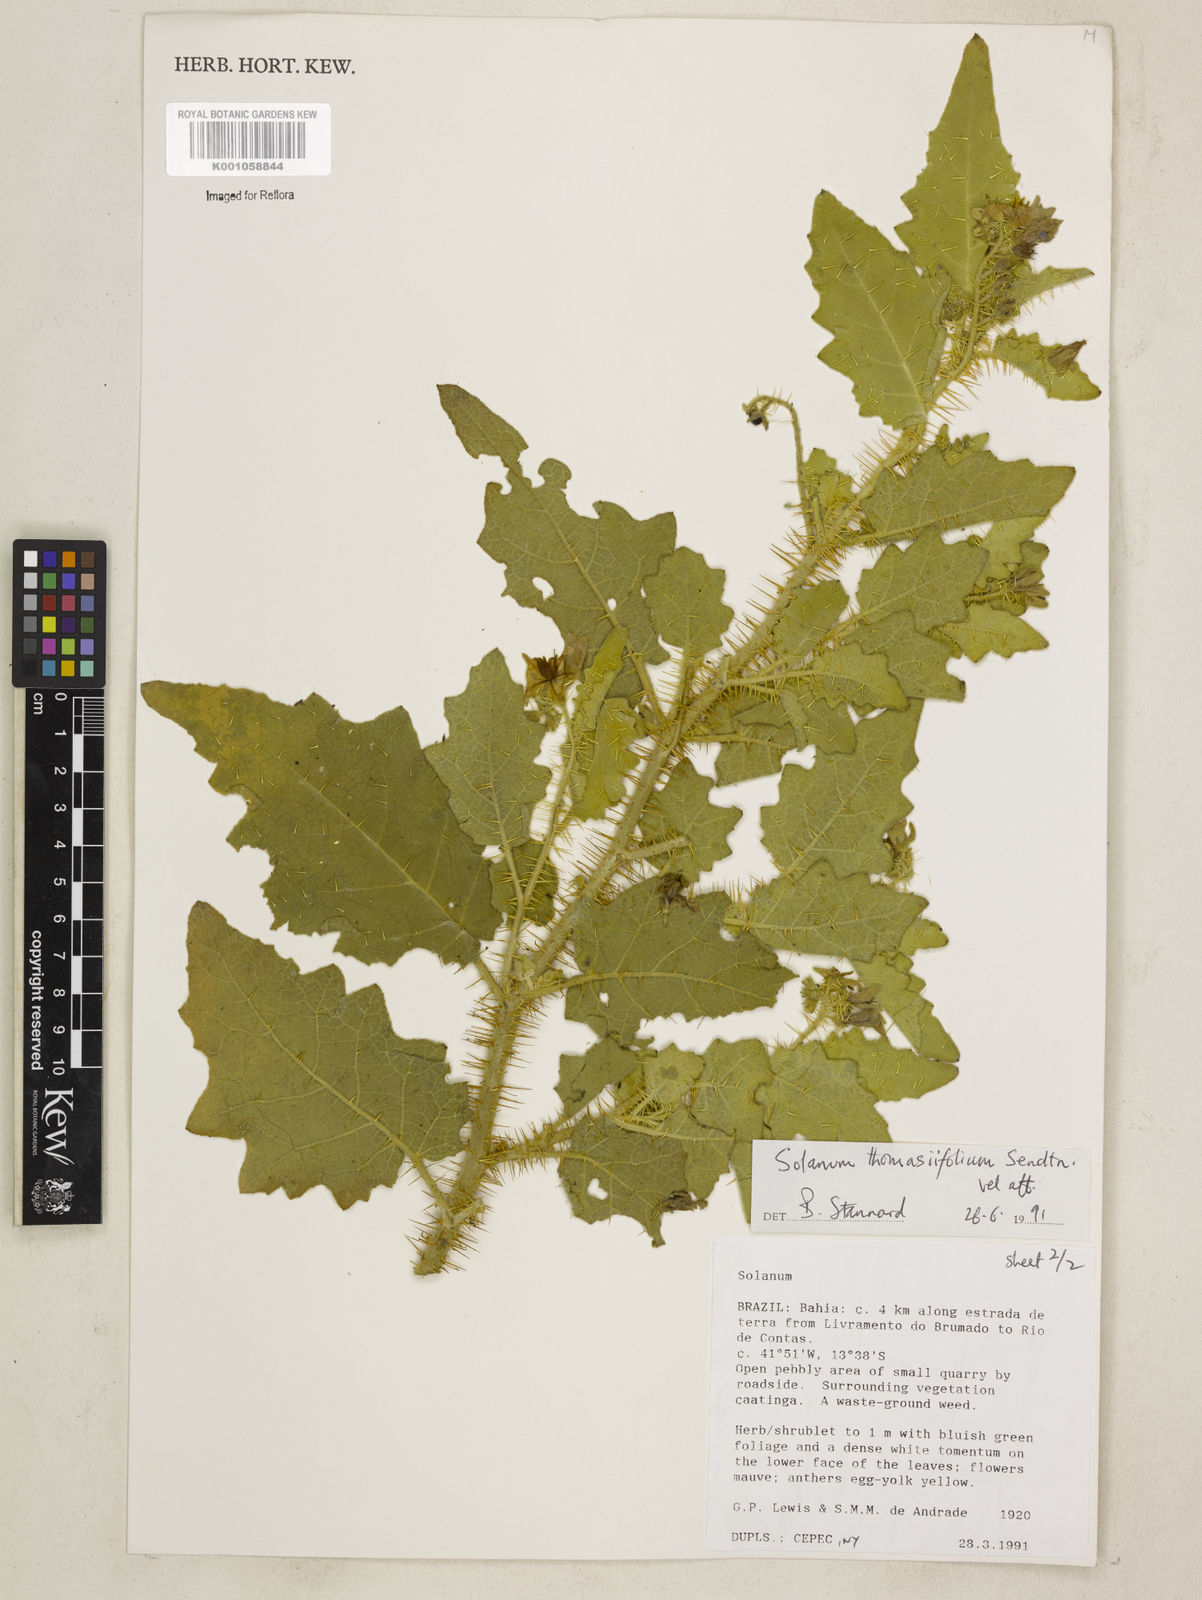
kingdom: Plantae
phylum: Tracheophyta
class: Magnoliopsida
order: Solanales
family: Solanaceae
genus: Solanum
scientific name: Solanum thomasiifolium
